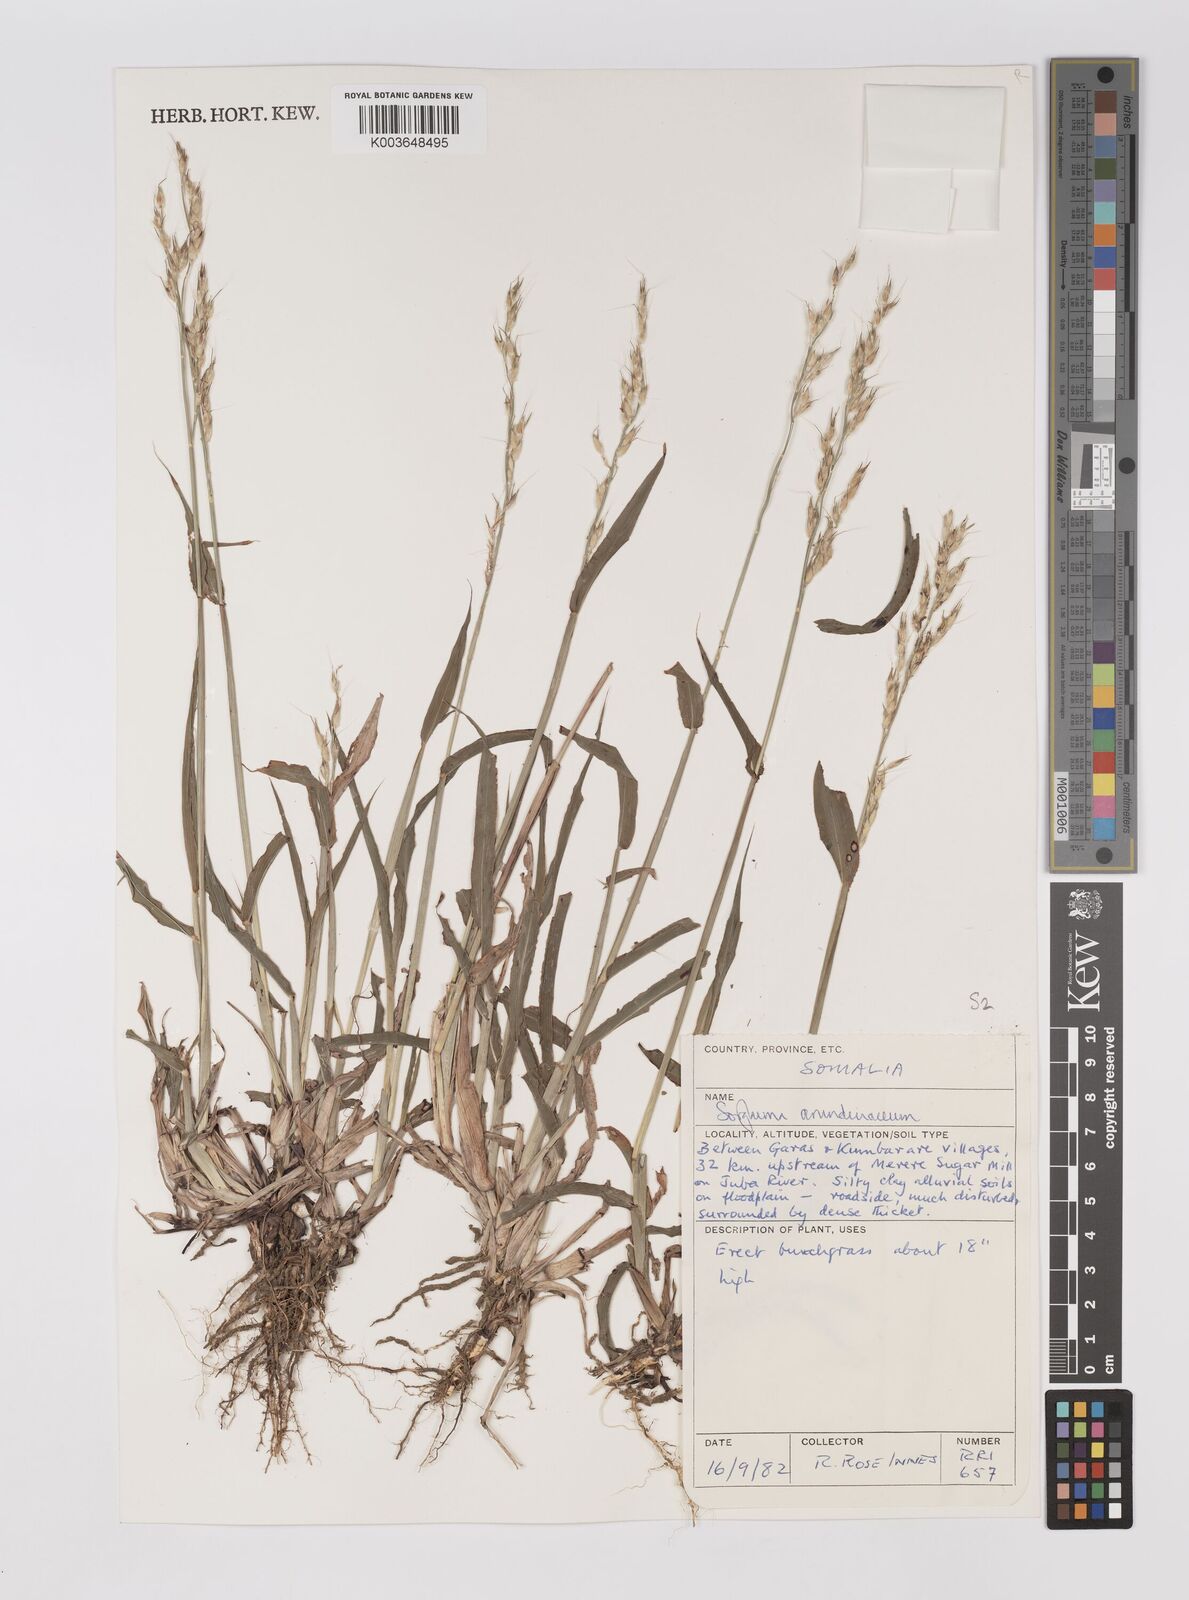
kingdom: Plantae
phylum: Tracheophyta
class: Liliopsida
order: Poales
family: Poaceae
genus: Sorghum
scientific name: Sorghum arundinaceum
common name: Sorghum
